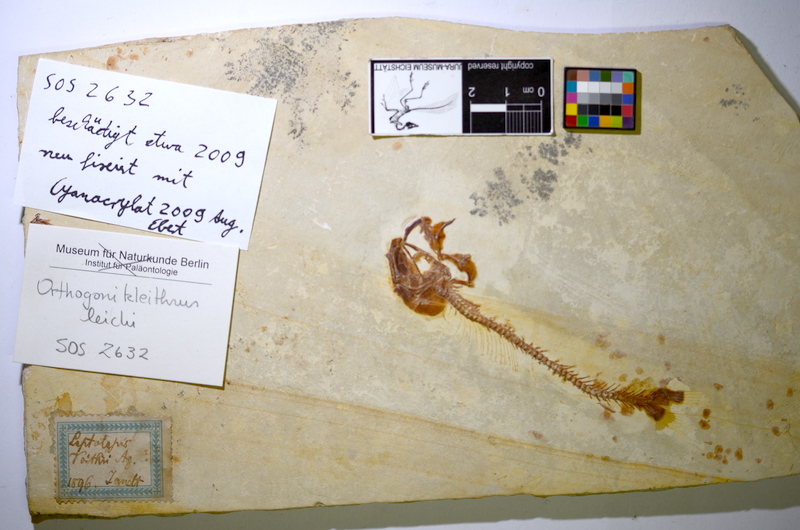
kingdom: Animalia
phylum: Chordata
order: Salmoniformes
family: Orthogonikleithridae
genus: Orthogonikleithrus
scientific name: Orthogonikleithrus leichi
